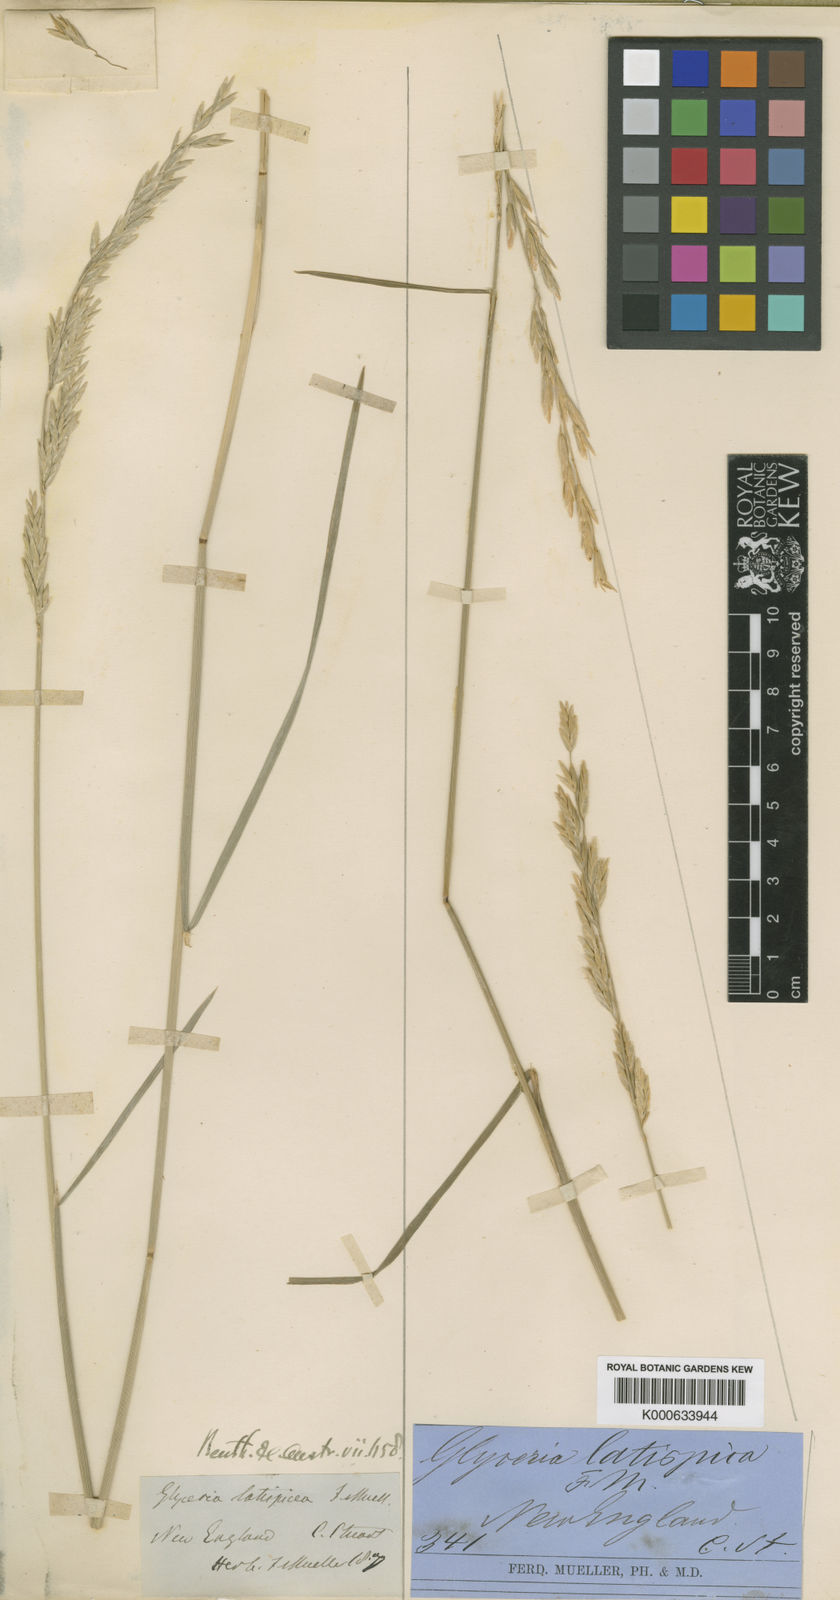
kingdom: Plantae
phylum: Tracheophyta
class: Liliopsida
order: Poales
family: Poaceae
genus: Glyceria
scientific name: Glyceria latispicea
